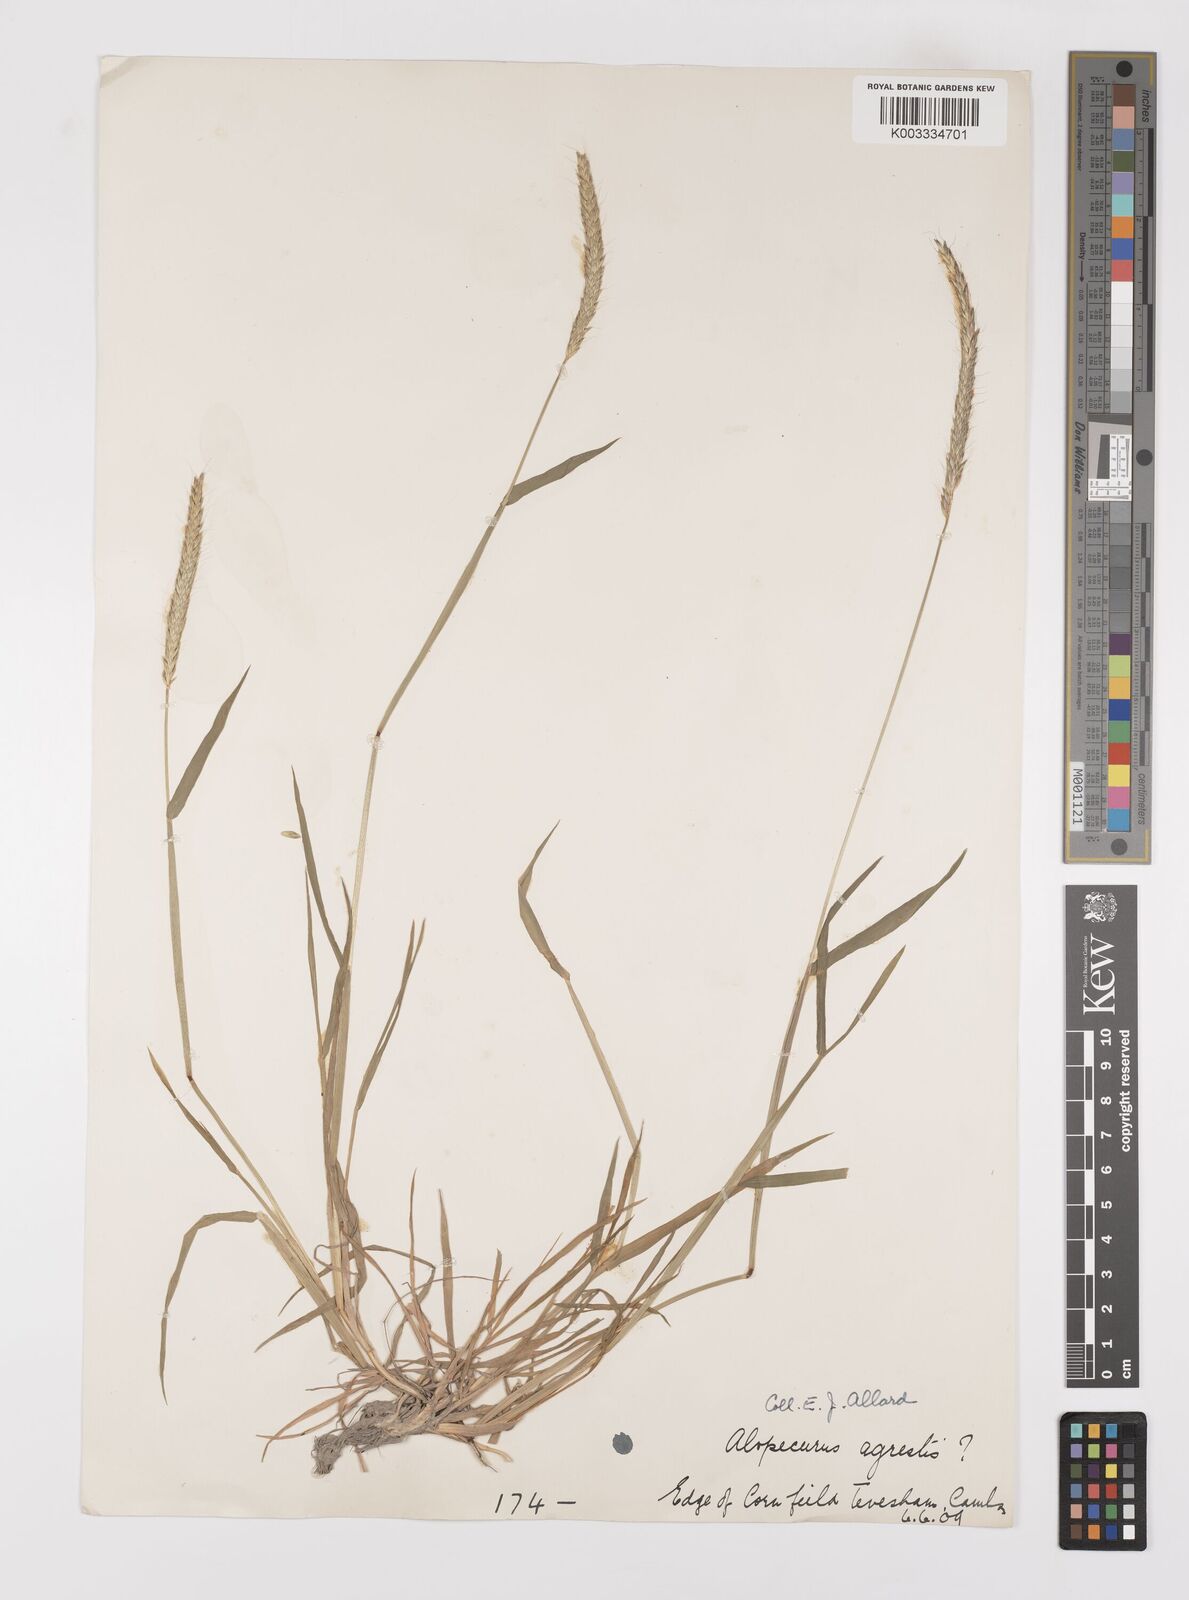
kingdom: Plantae
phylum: Tracheophyta
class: Liliopsida
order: Poales
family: Poaceae
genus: Alopecurus
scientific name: Alopecurus myosuroides
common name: Black-grass
